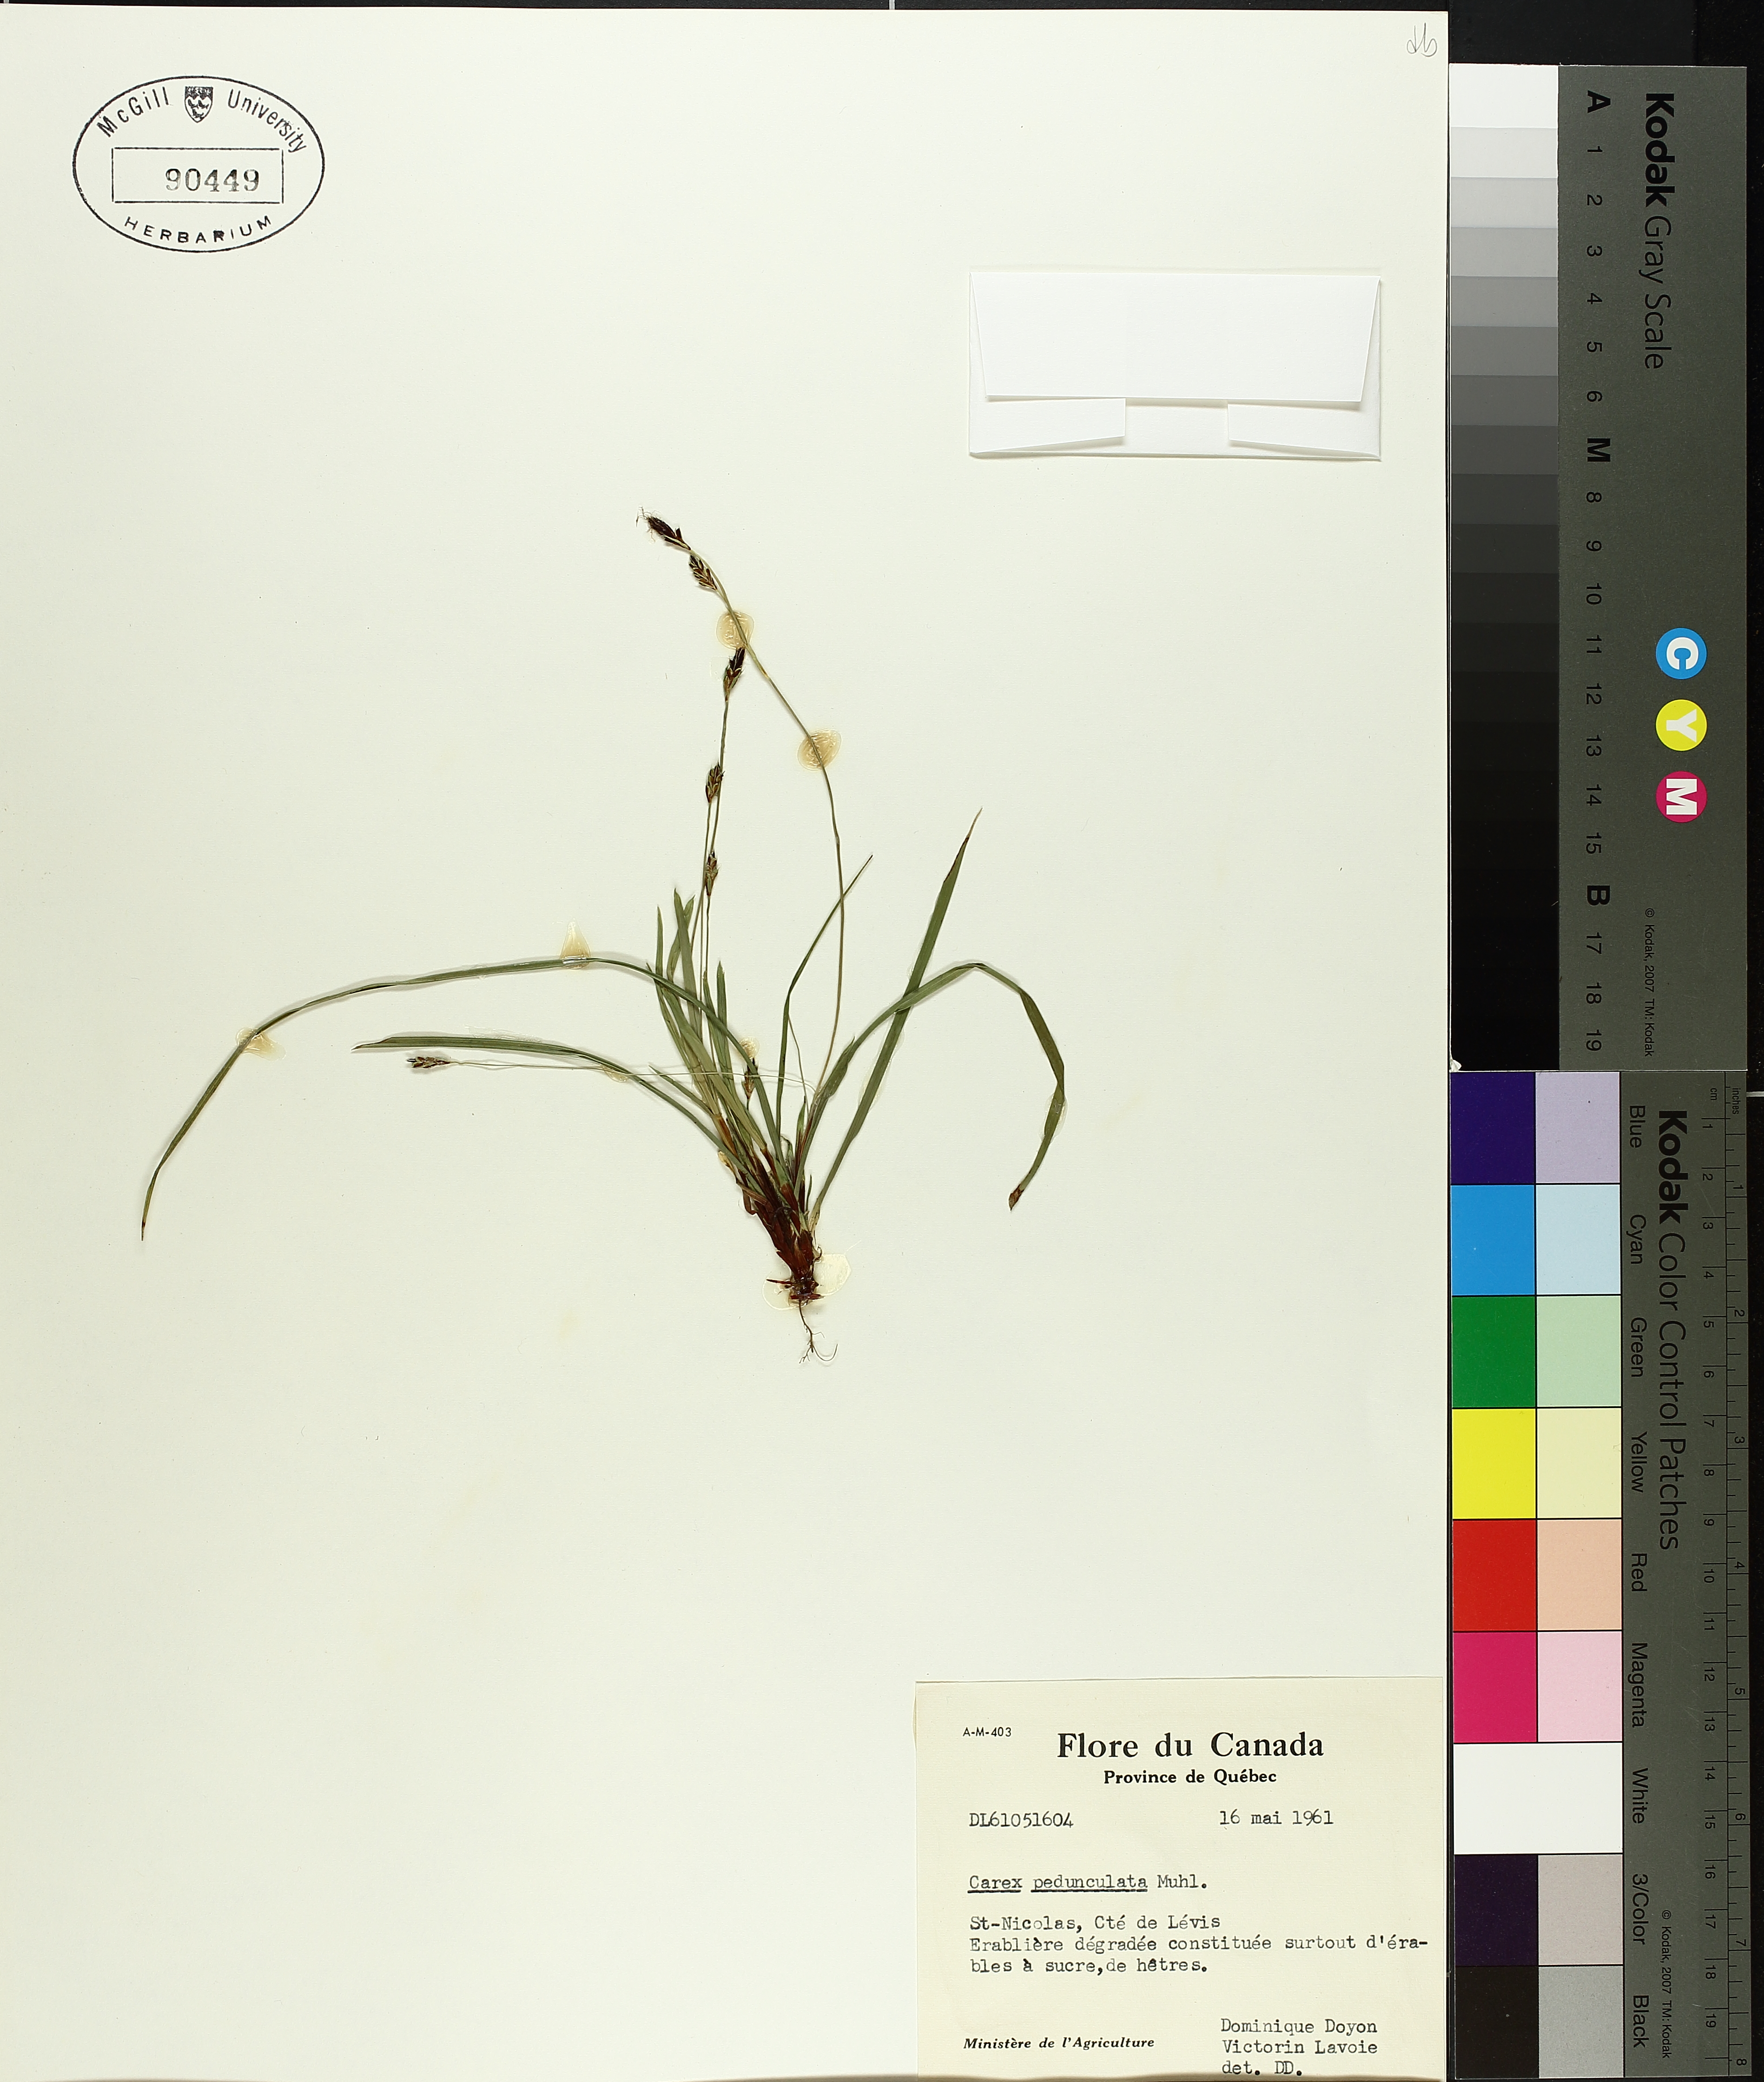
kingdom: Plantae
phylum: Tracheophyta
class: Liliopsida
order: Poales
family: Cyperaceae
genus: Carex
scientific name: Carex pedunculata
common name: Pedunculate sedge
